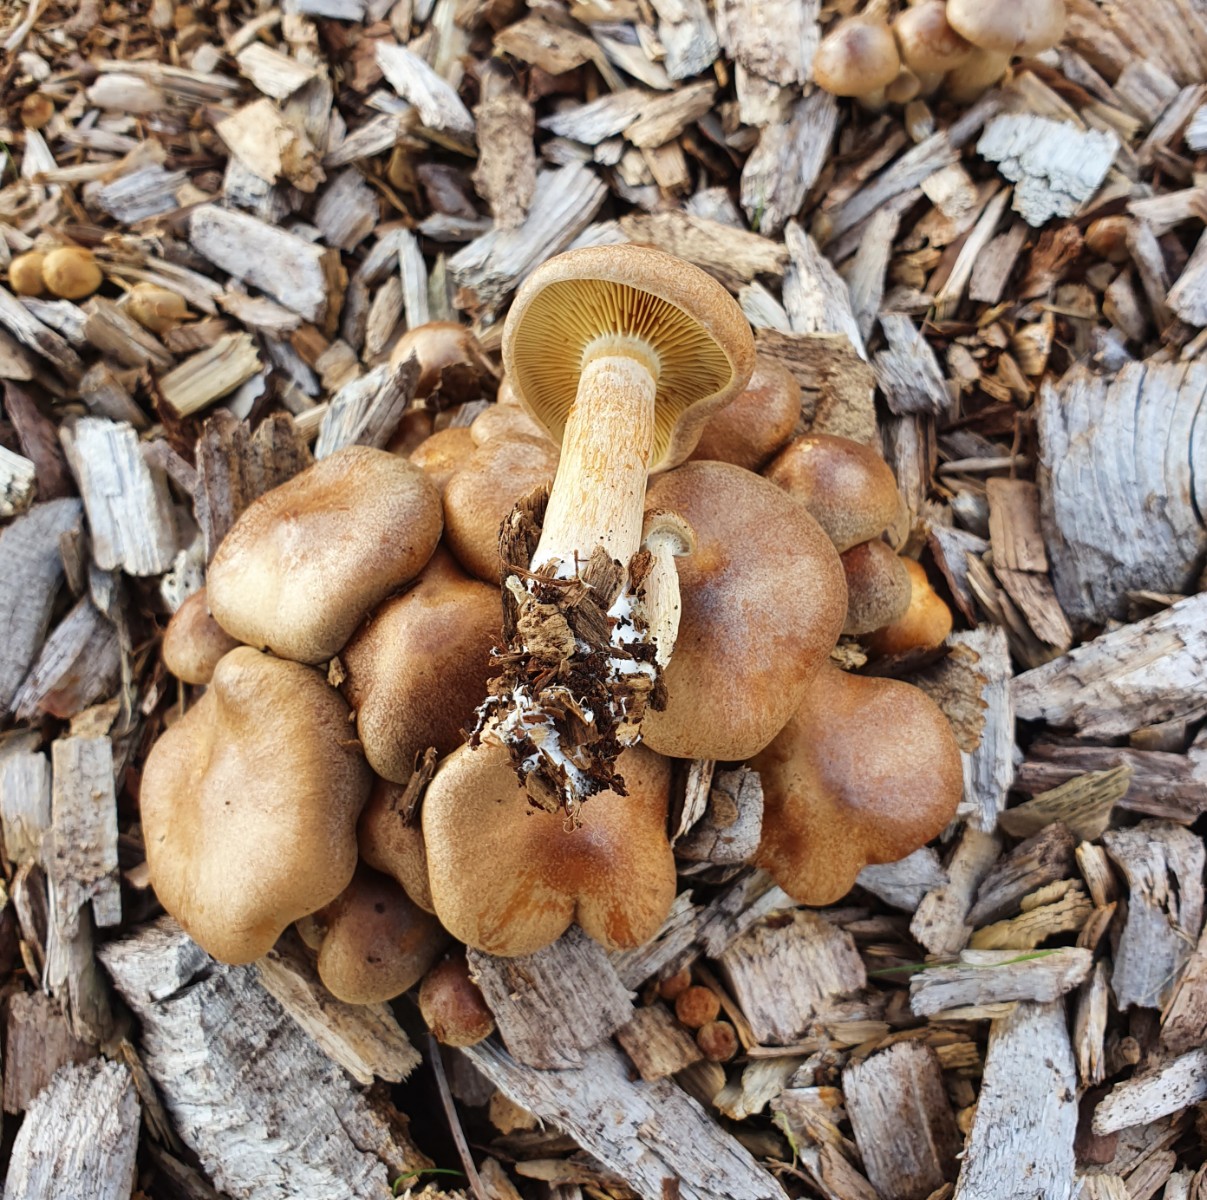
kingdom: Fungi
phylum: Basidiomycota
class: Agaricomycetes
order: Agaricales
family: Hymenogastraceae
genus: Gymnopilus
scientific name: Gymnopilus penetrans
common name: plettet flammehat
